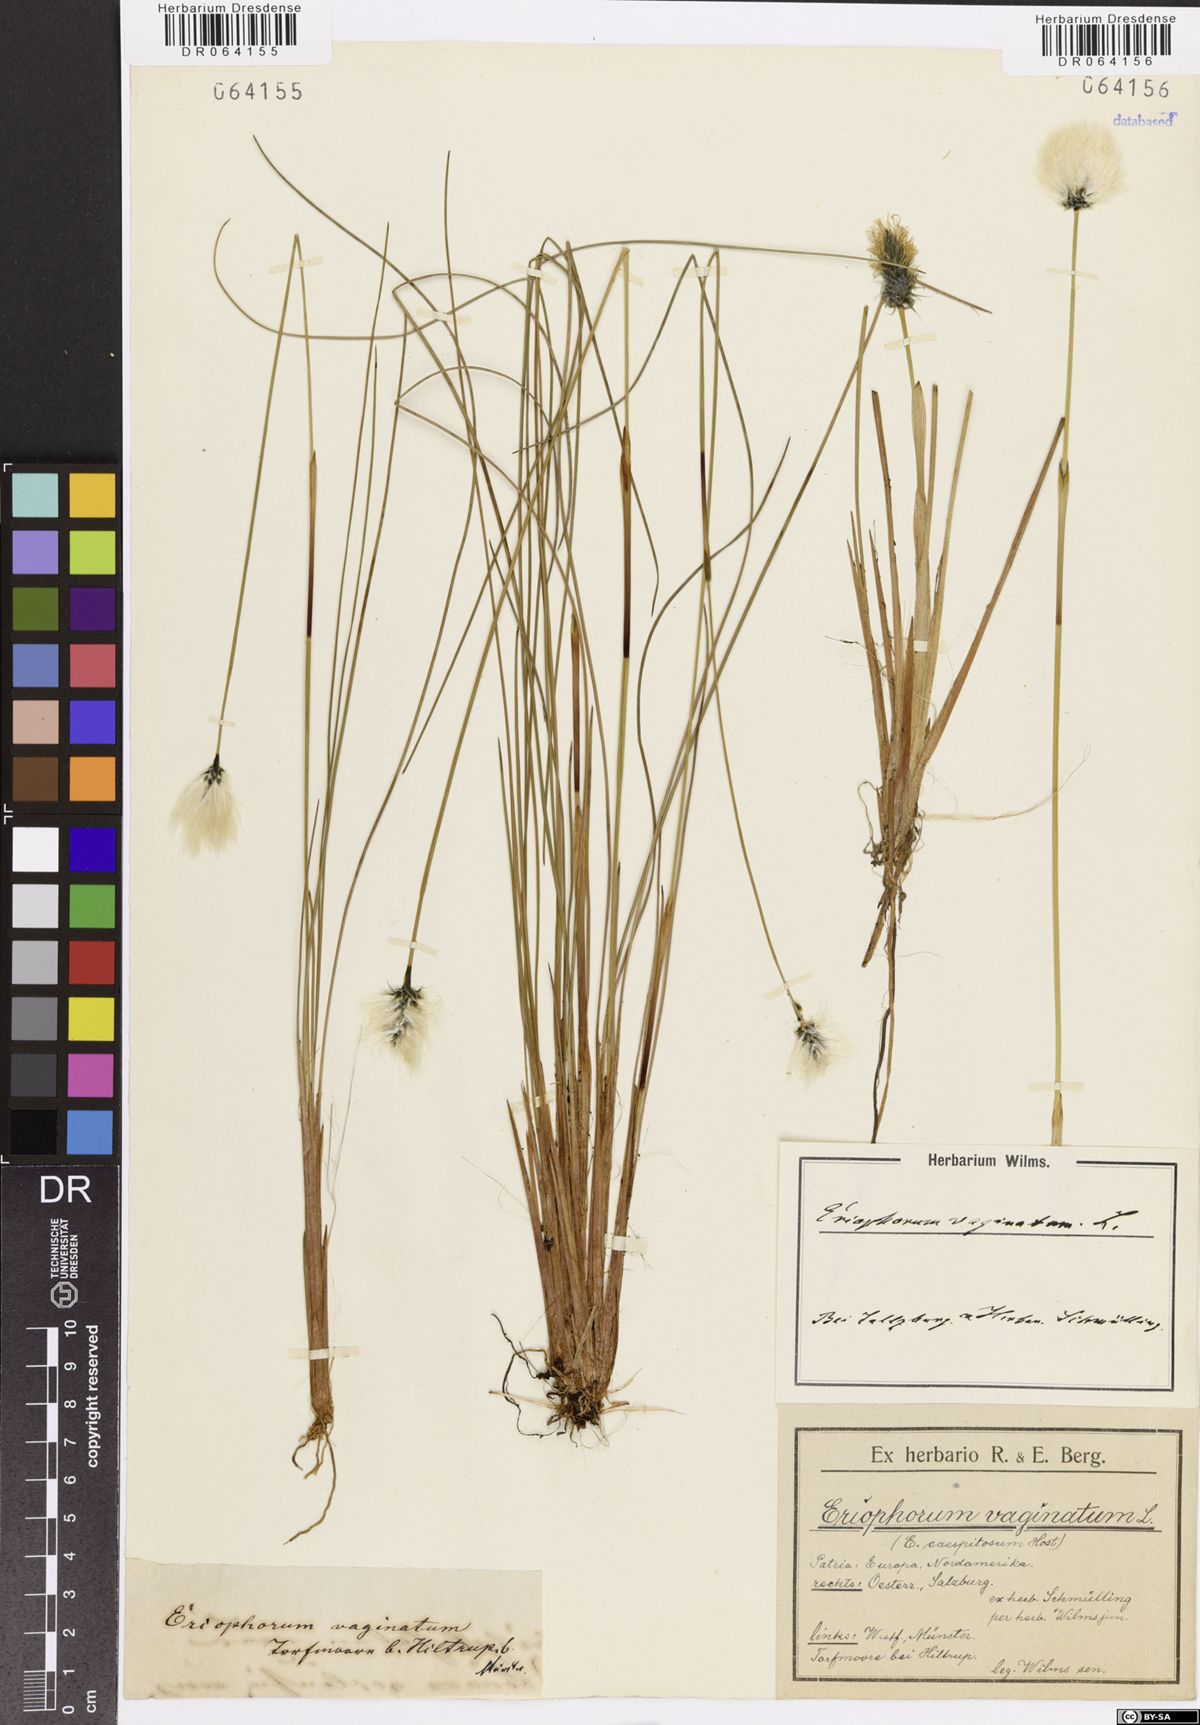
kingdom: Plantae
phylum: Tracheophyta
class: Liliopsida
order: Poales
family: Cyperaceae
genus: Eriophorum
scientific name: Eriophorum vaginatum
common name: Hare's-tail cottongrass
